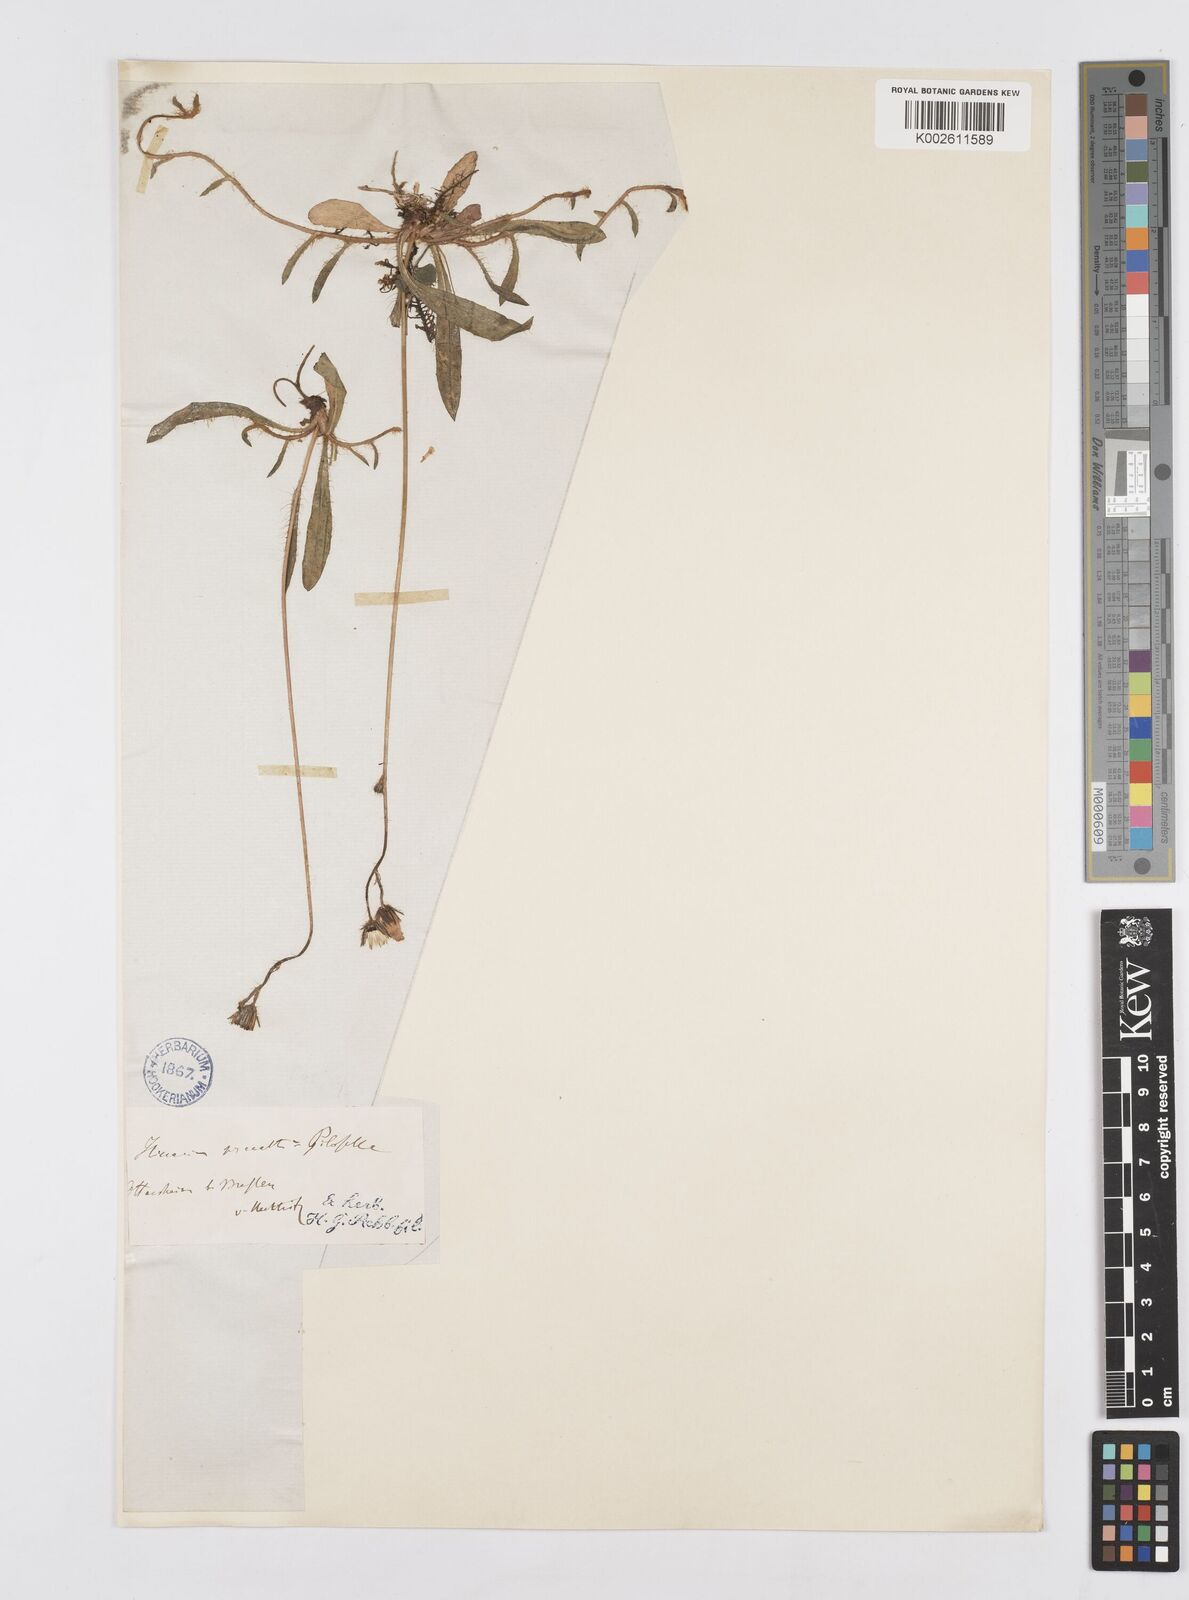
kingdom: Plantae
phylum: Tracheophyta
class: Magnoliopsida
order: Asterales
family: Asteraceae
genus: Pilosella
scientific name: Pilosella acutifolia
